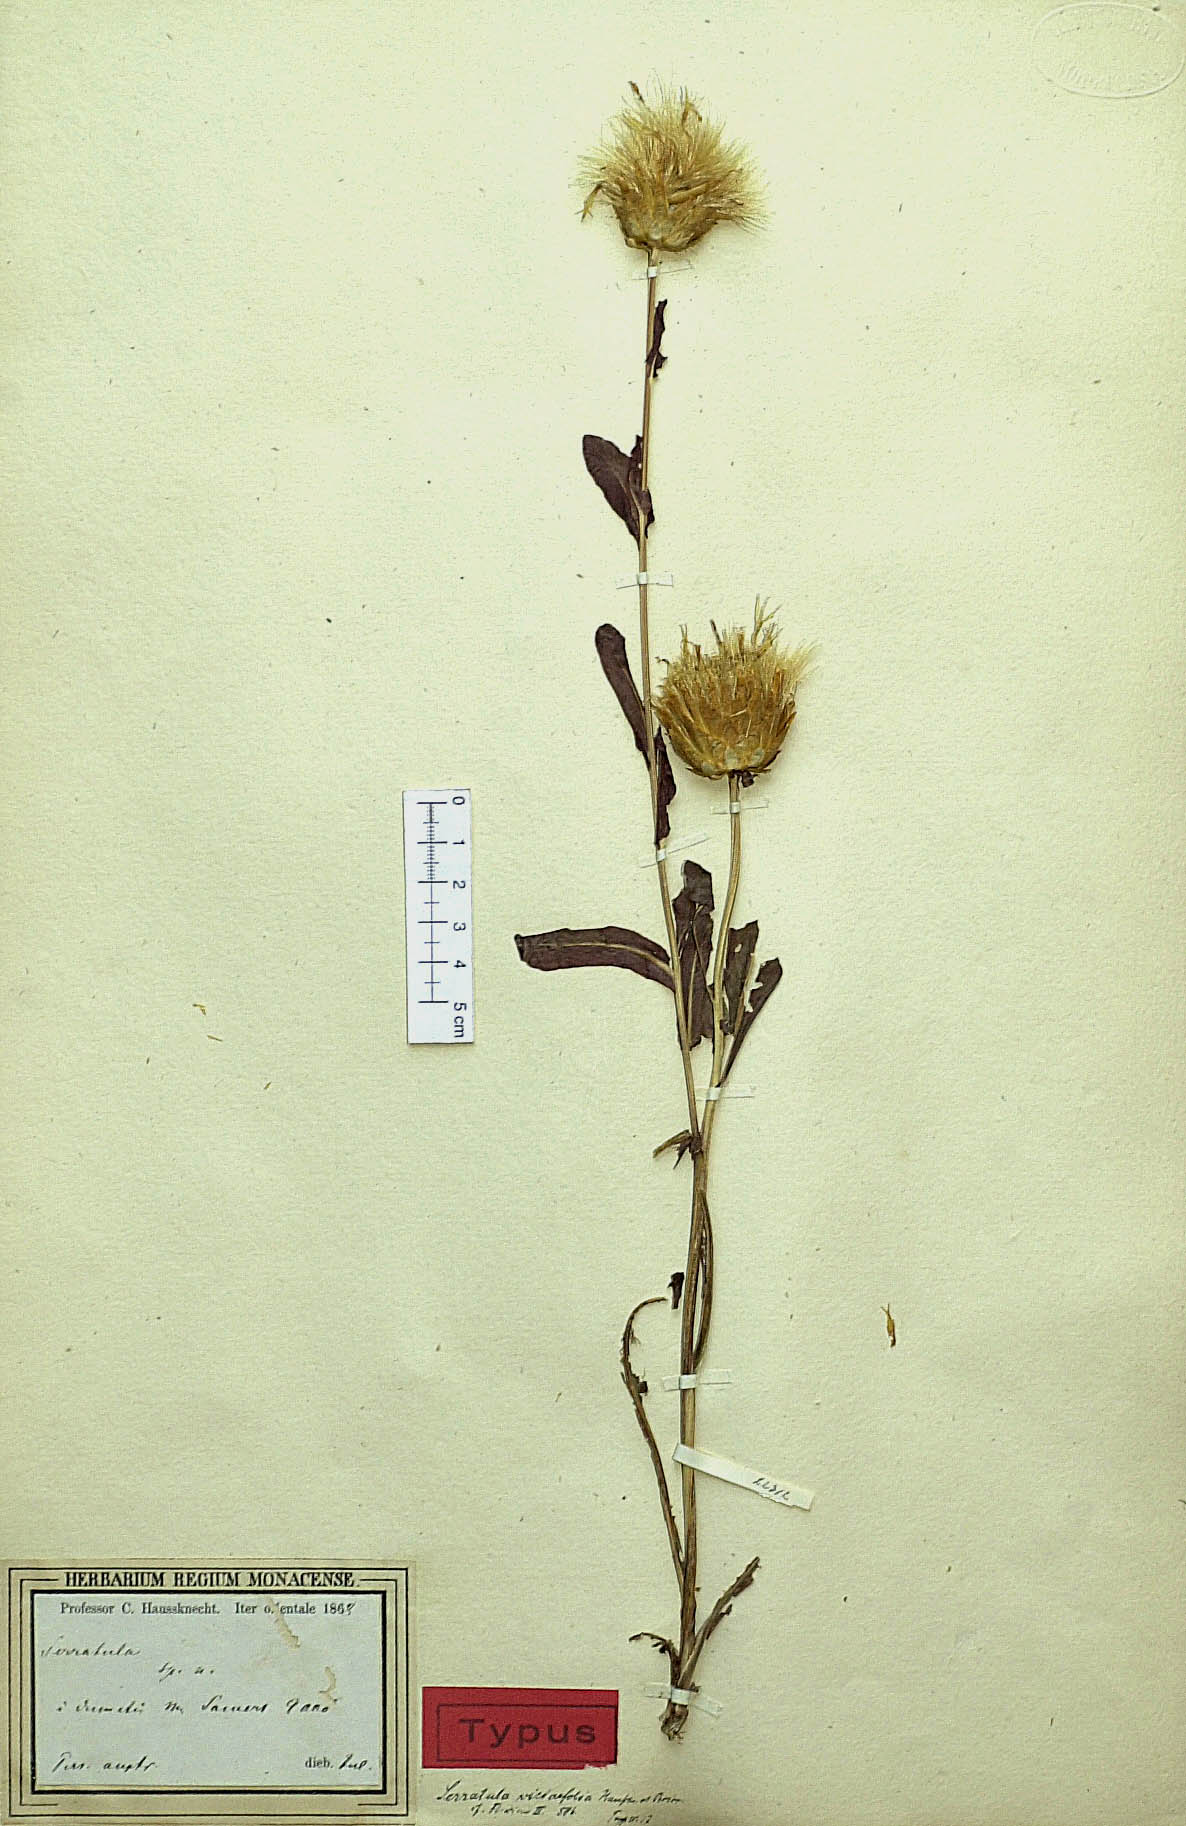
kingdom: Plantae
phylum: Tracheophyta
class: Magnoliopsida
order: Asterales
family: Asteraceae
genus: Klasea
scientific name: Klasea viciifolia
